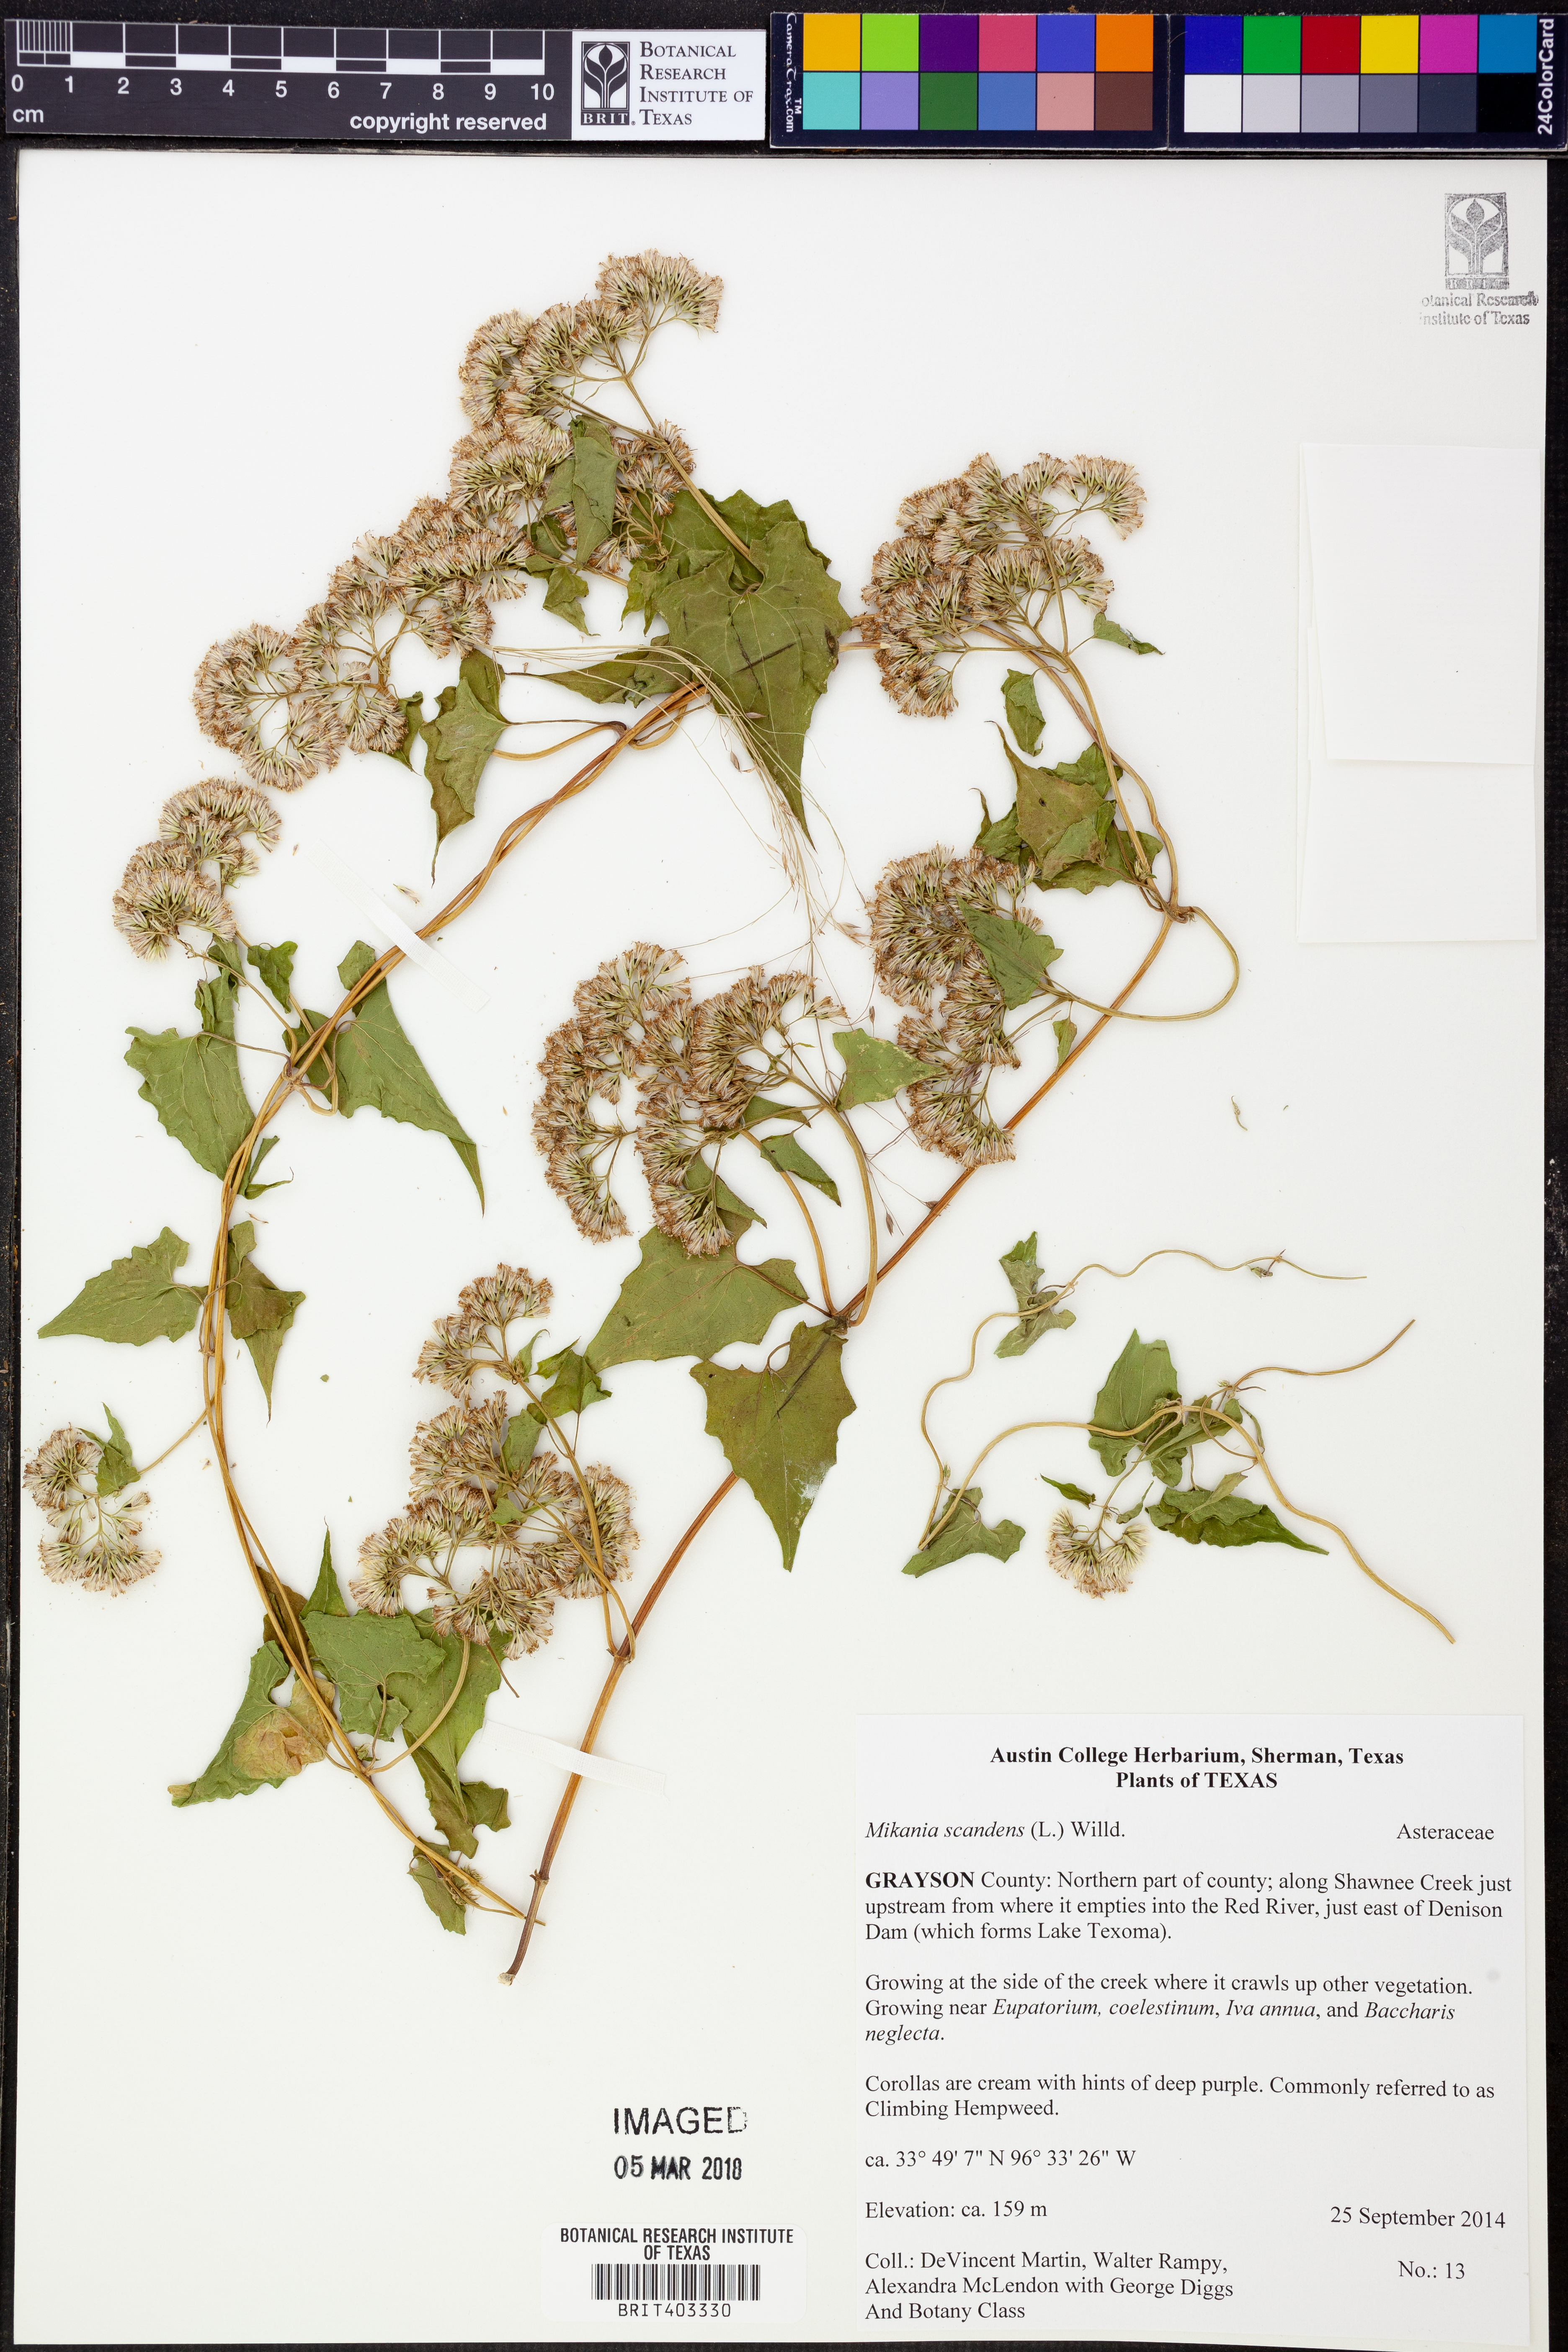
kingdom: Plantae
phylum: Tracheophyta
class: Magnoliopsida
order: Asterales
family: Asteraceae
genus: Mikania
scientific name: Mikania scandens
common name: Climbing hempvine
